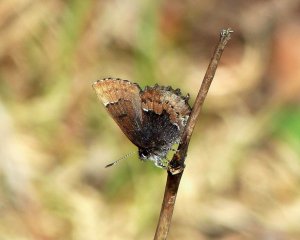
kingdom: Animalia
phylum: Arthropoda
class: Insecta
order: Lepidoptera
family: Lycaenidae
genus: Incisalia
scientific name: Incisalia henrici
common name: Henry's Elfin
